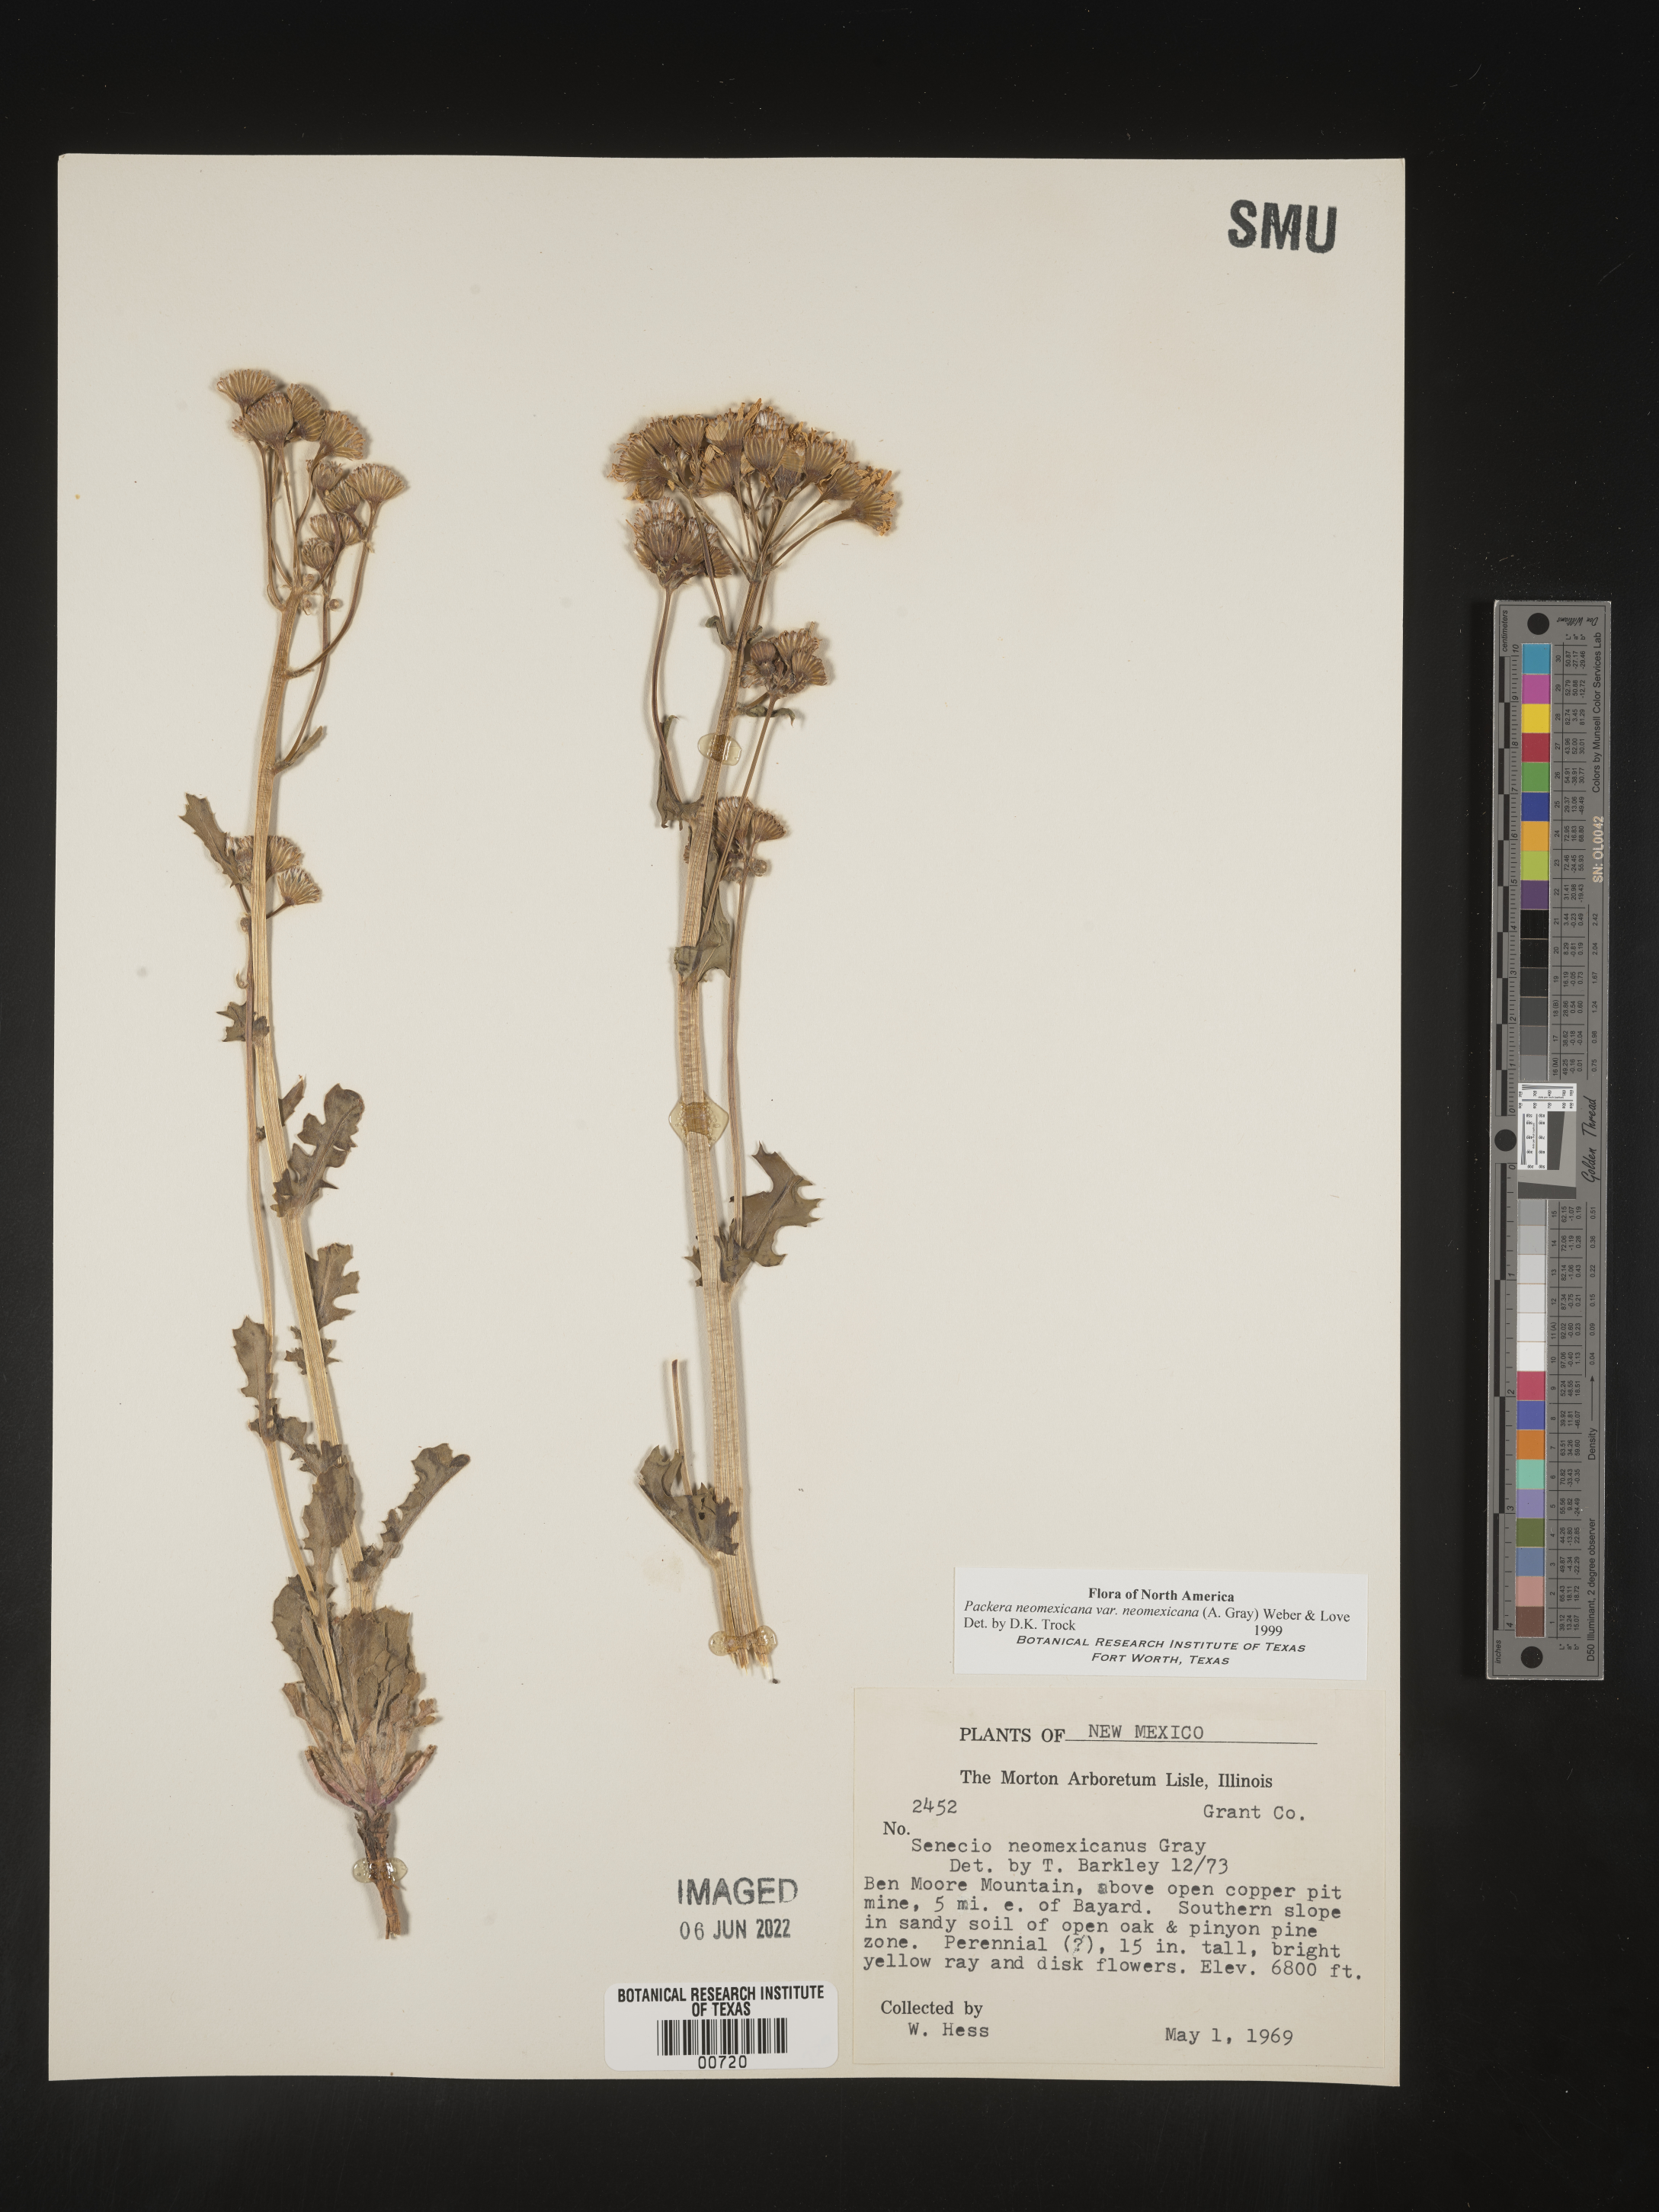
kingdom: Plantae
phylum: Tracheophyta
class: Magnoliopsida
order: Asterales
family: Asteraceae
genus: Packera
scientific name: Packera neomexicana
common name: New mexico butterweed
